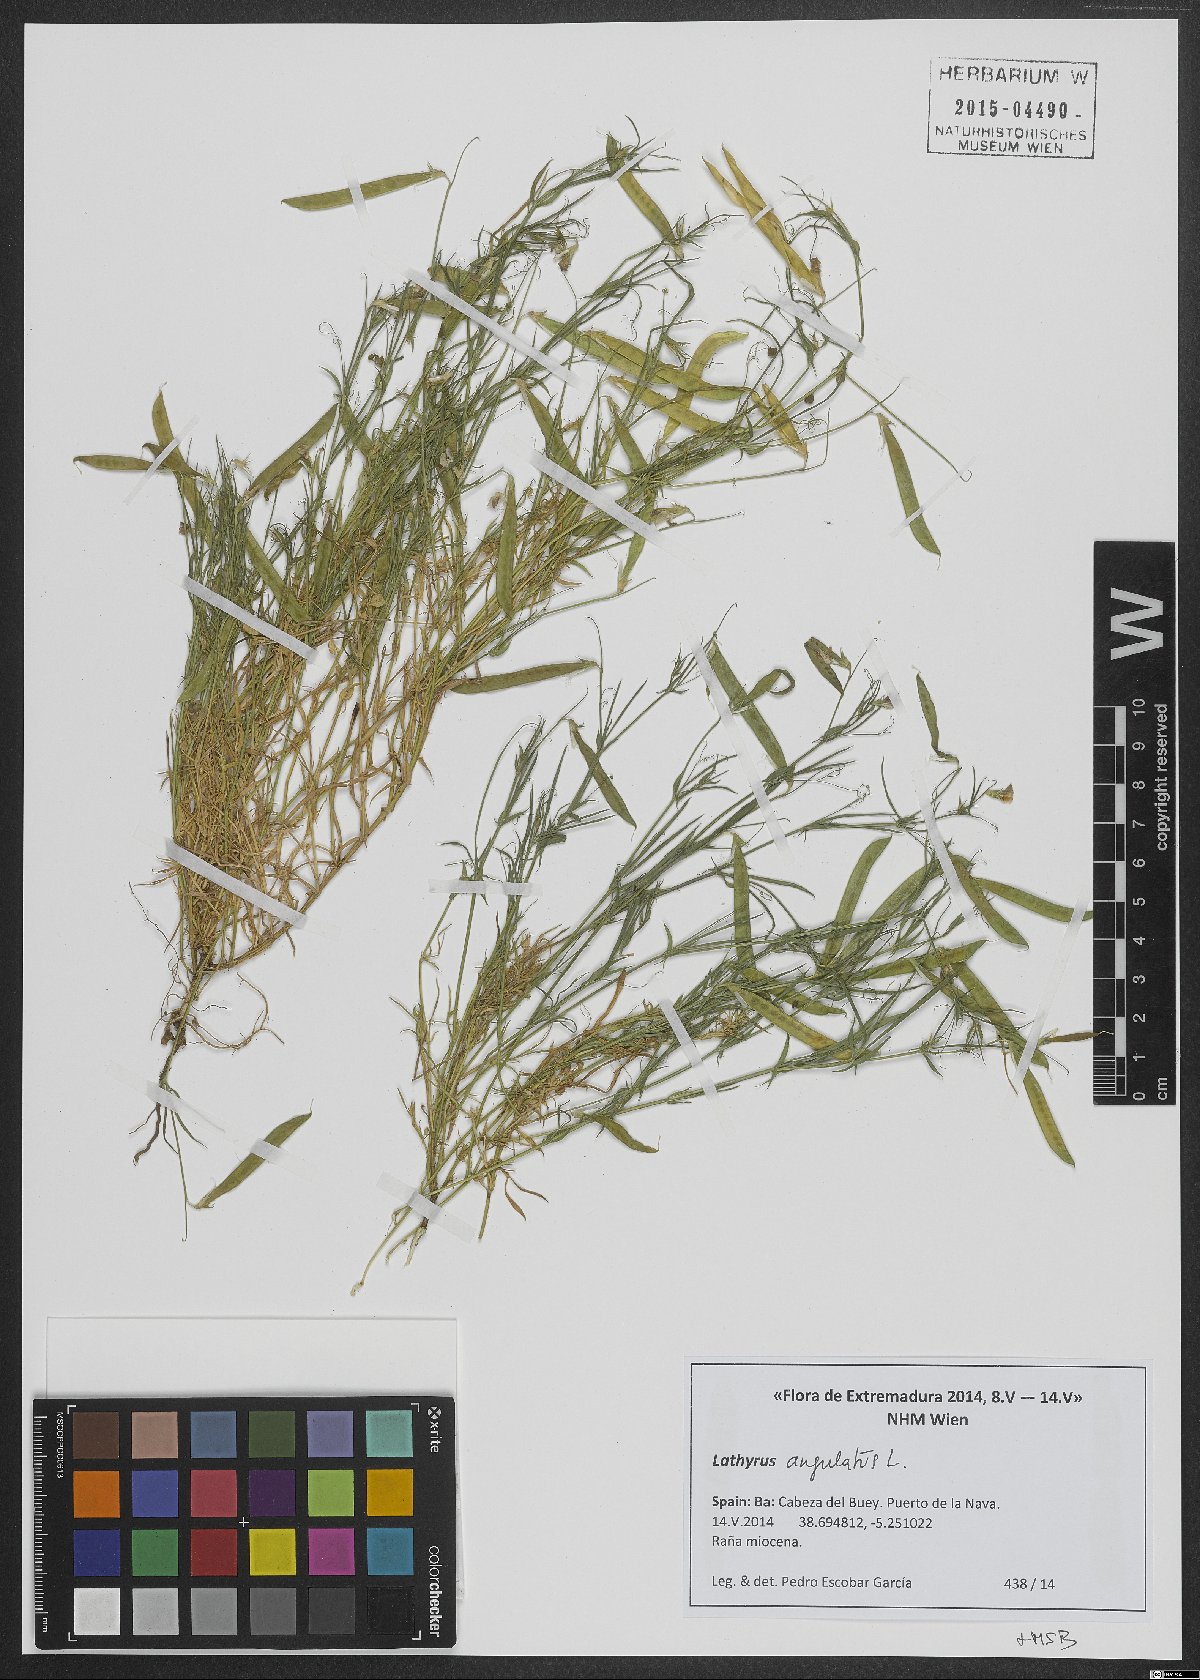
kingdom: Plantae
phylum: Tracheophyta
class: Magnoliopsida
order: Fabales
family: Fabaceae
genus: Lathyrus
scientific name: Lathyrus angulatus
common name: Angular pea
